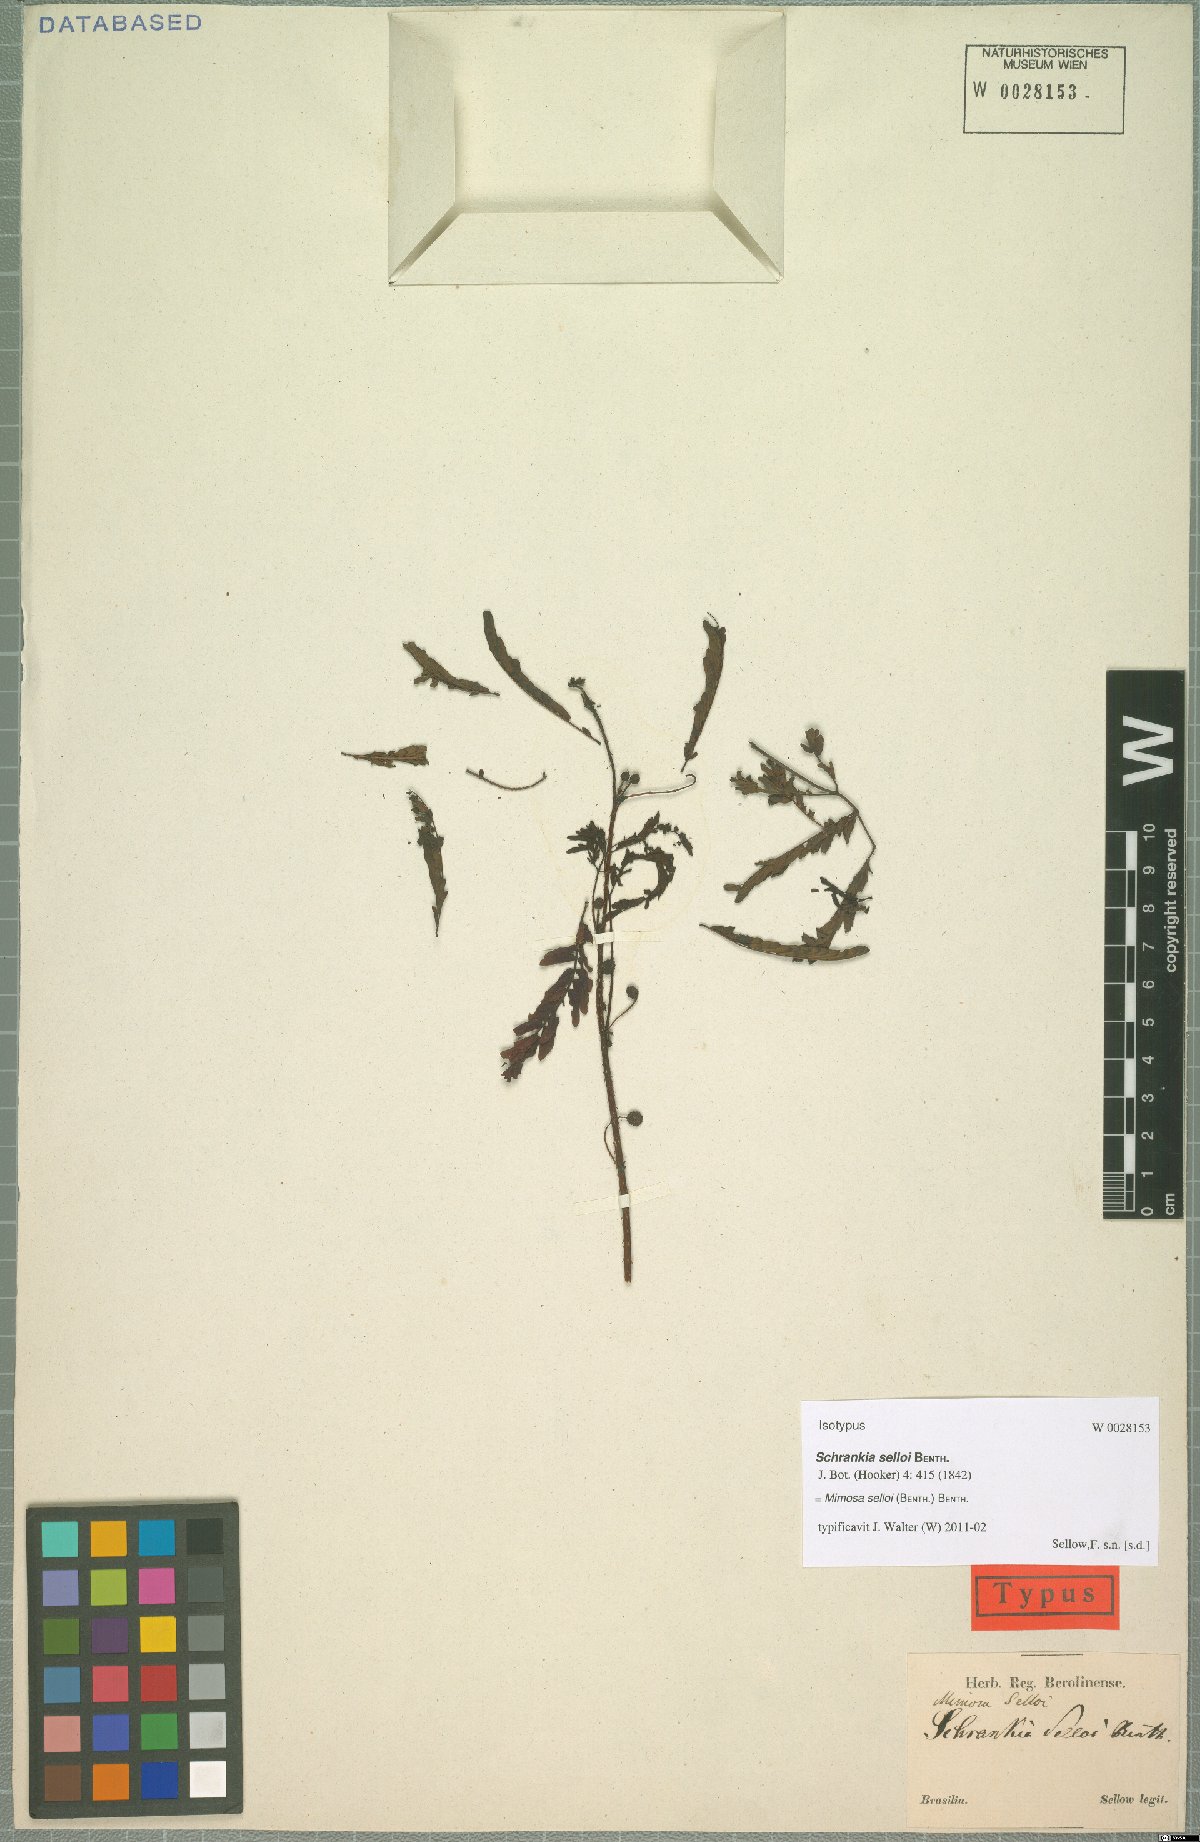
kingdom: Plantae
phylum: Tracheophyta
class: Magnoliopsida
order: Fabales
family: Fabaceae
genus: Mimosa
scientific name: Mimosa selloi
